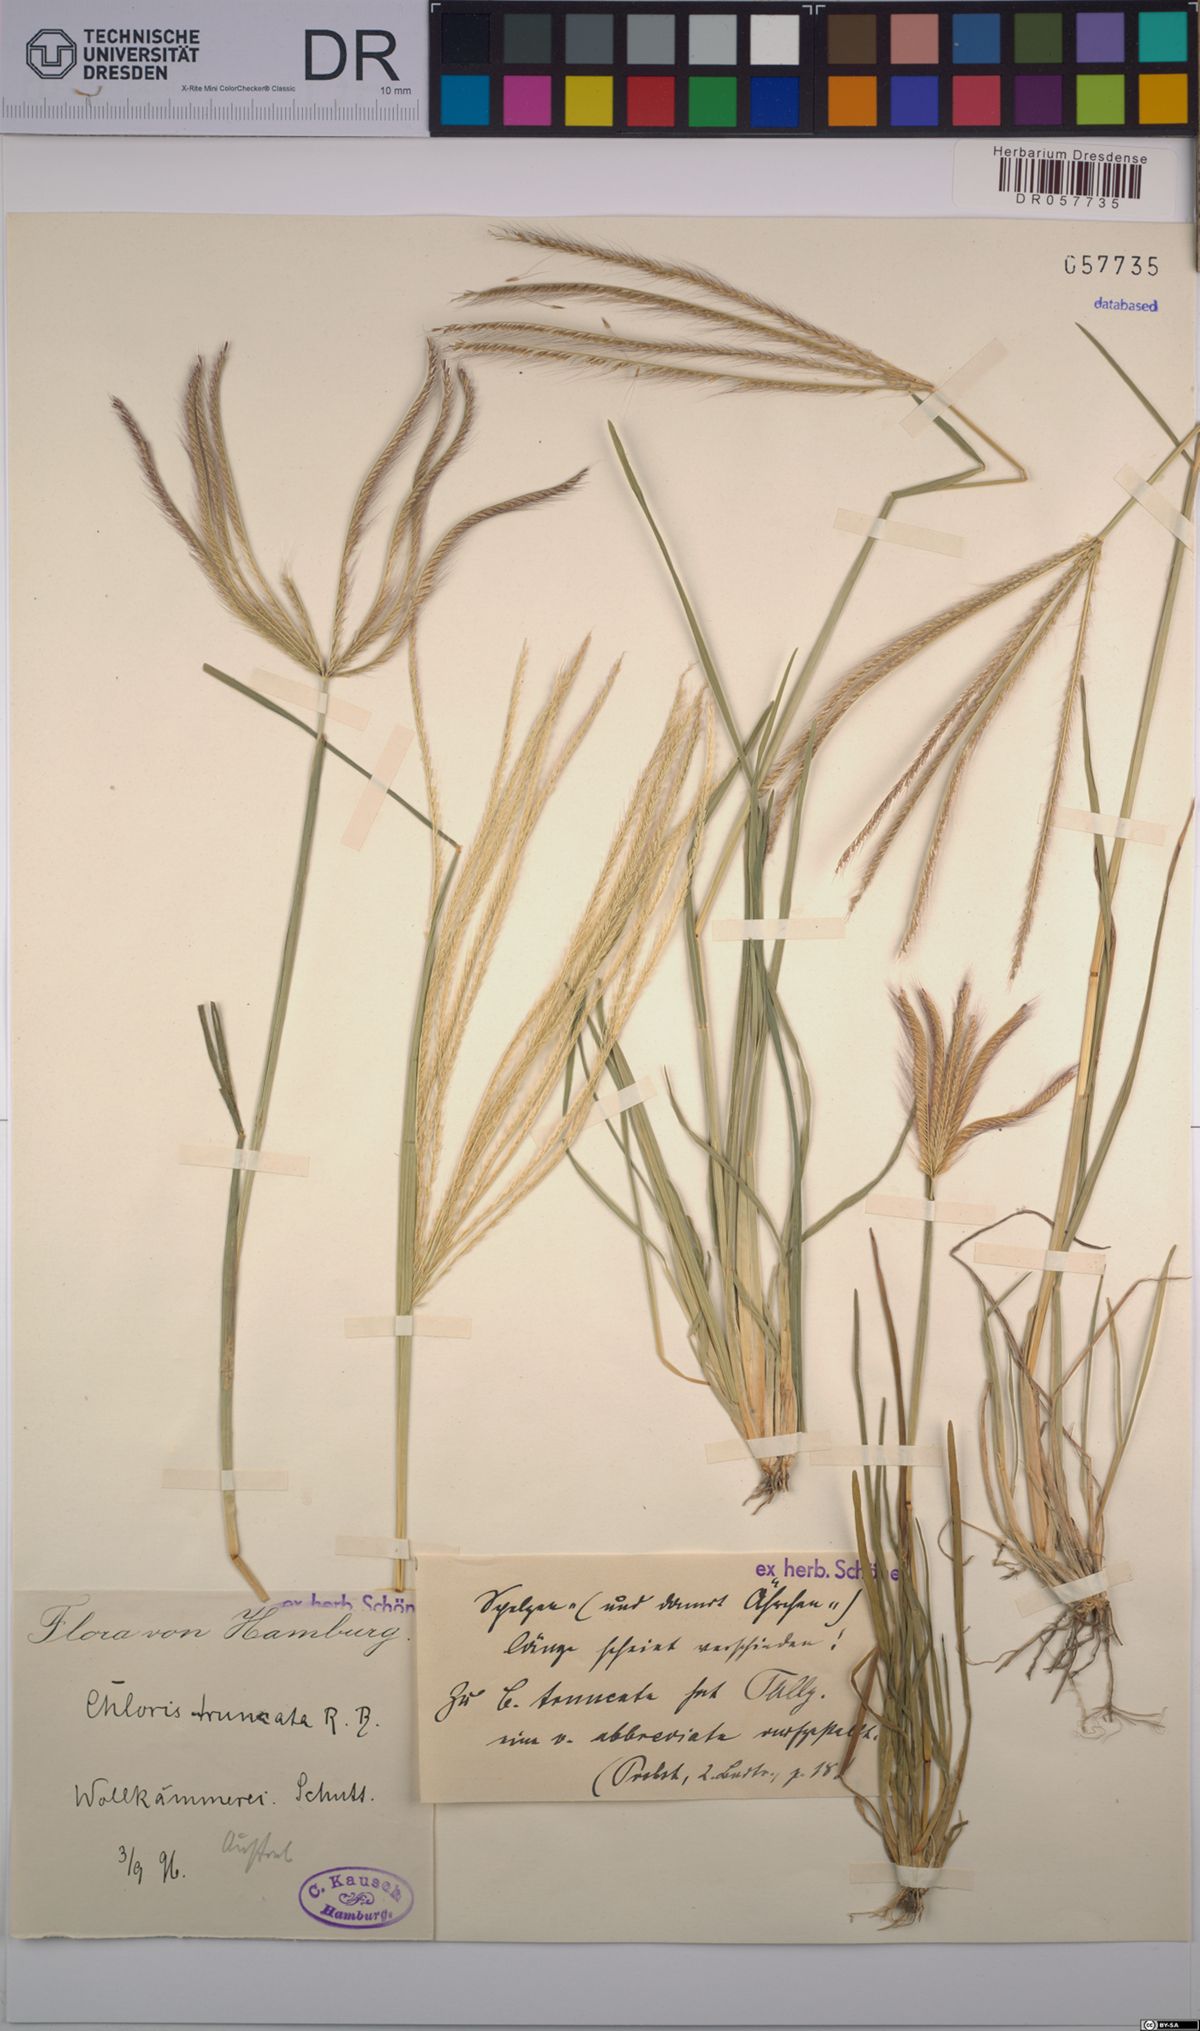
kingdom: Plantae
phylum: Tracheophyta
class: Liliopsida
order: Poales
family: Poaceae
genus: Chloris
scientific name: Chloris truncata
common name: Windmill-grass
